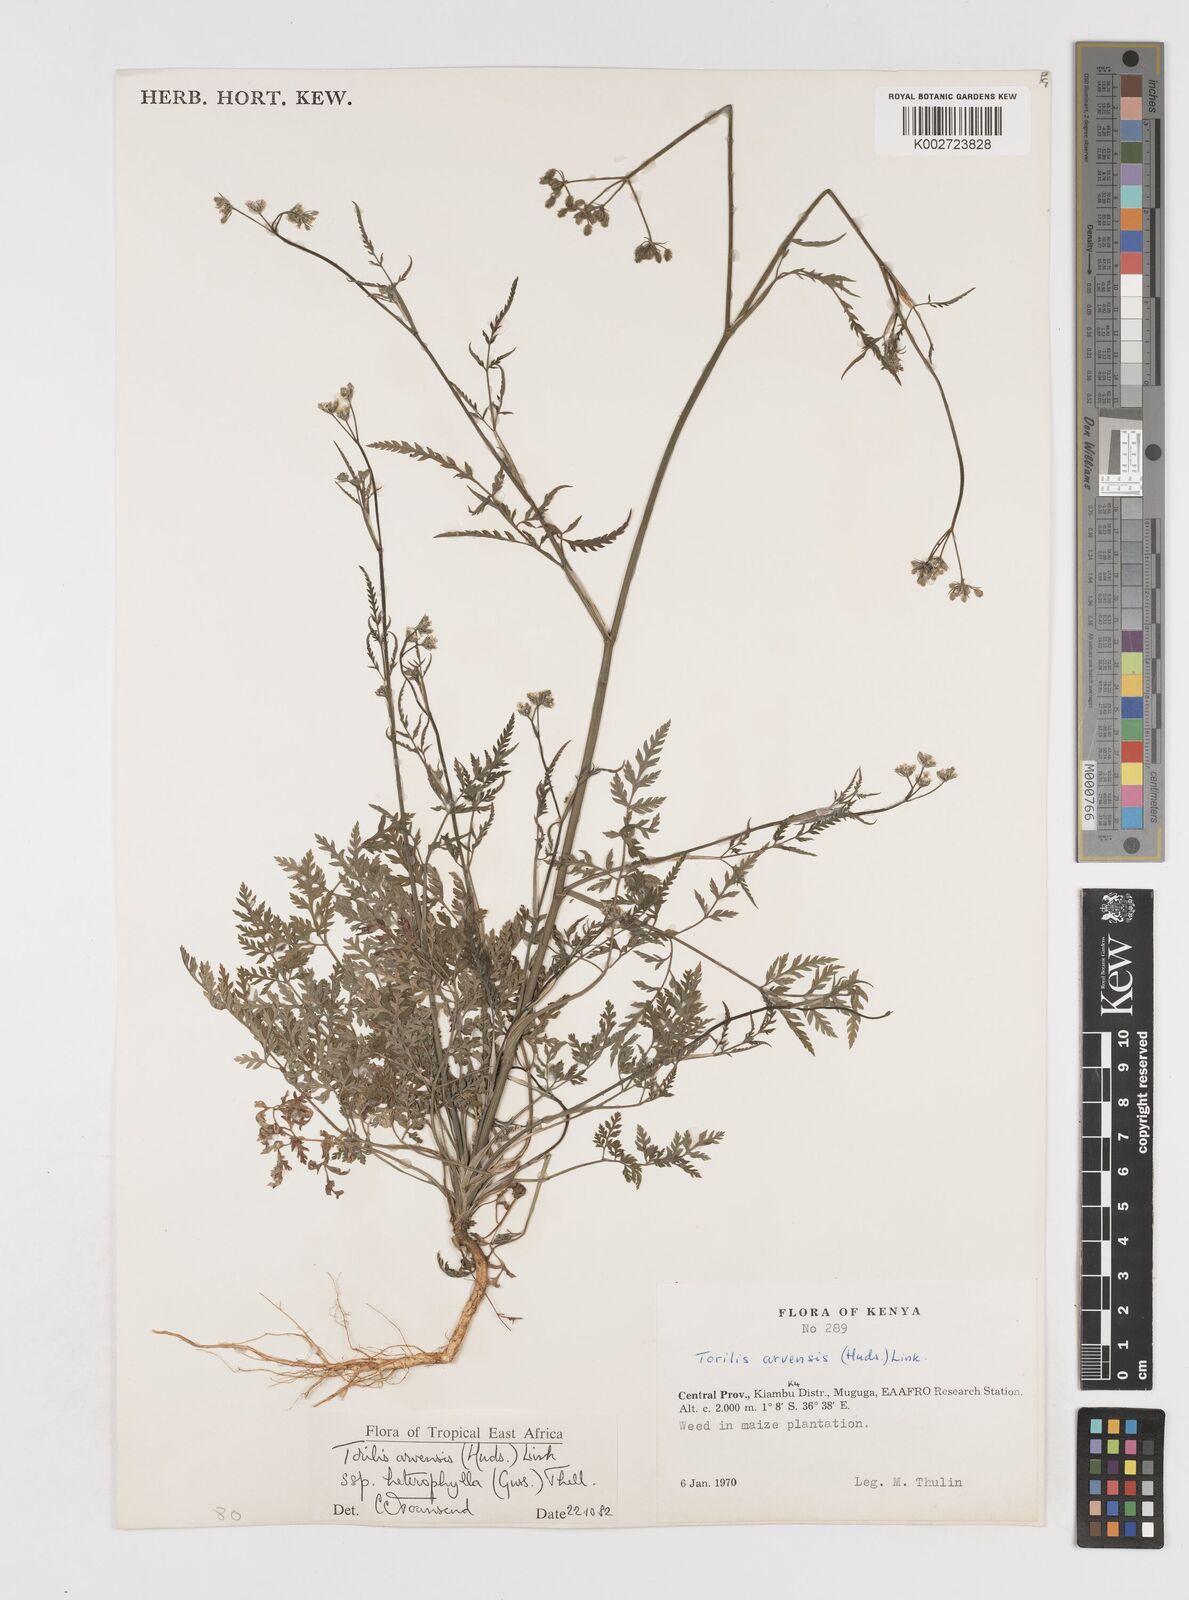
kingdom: Plantae
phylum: Tracheophyta
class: Magnoliopsida
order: Apiales
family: Apiaceae
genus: Torilis
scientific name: Torilis arvensis
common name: Spreading hedge-parsley
